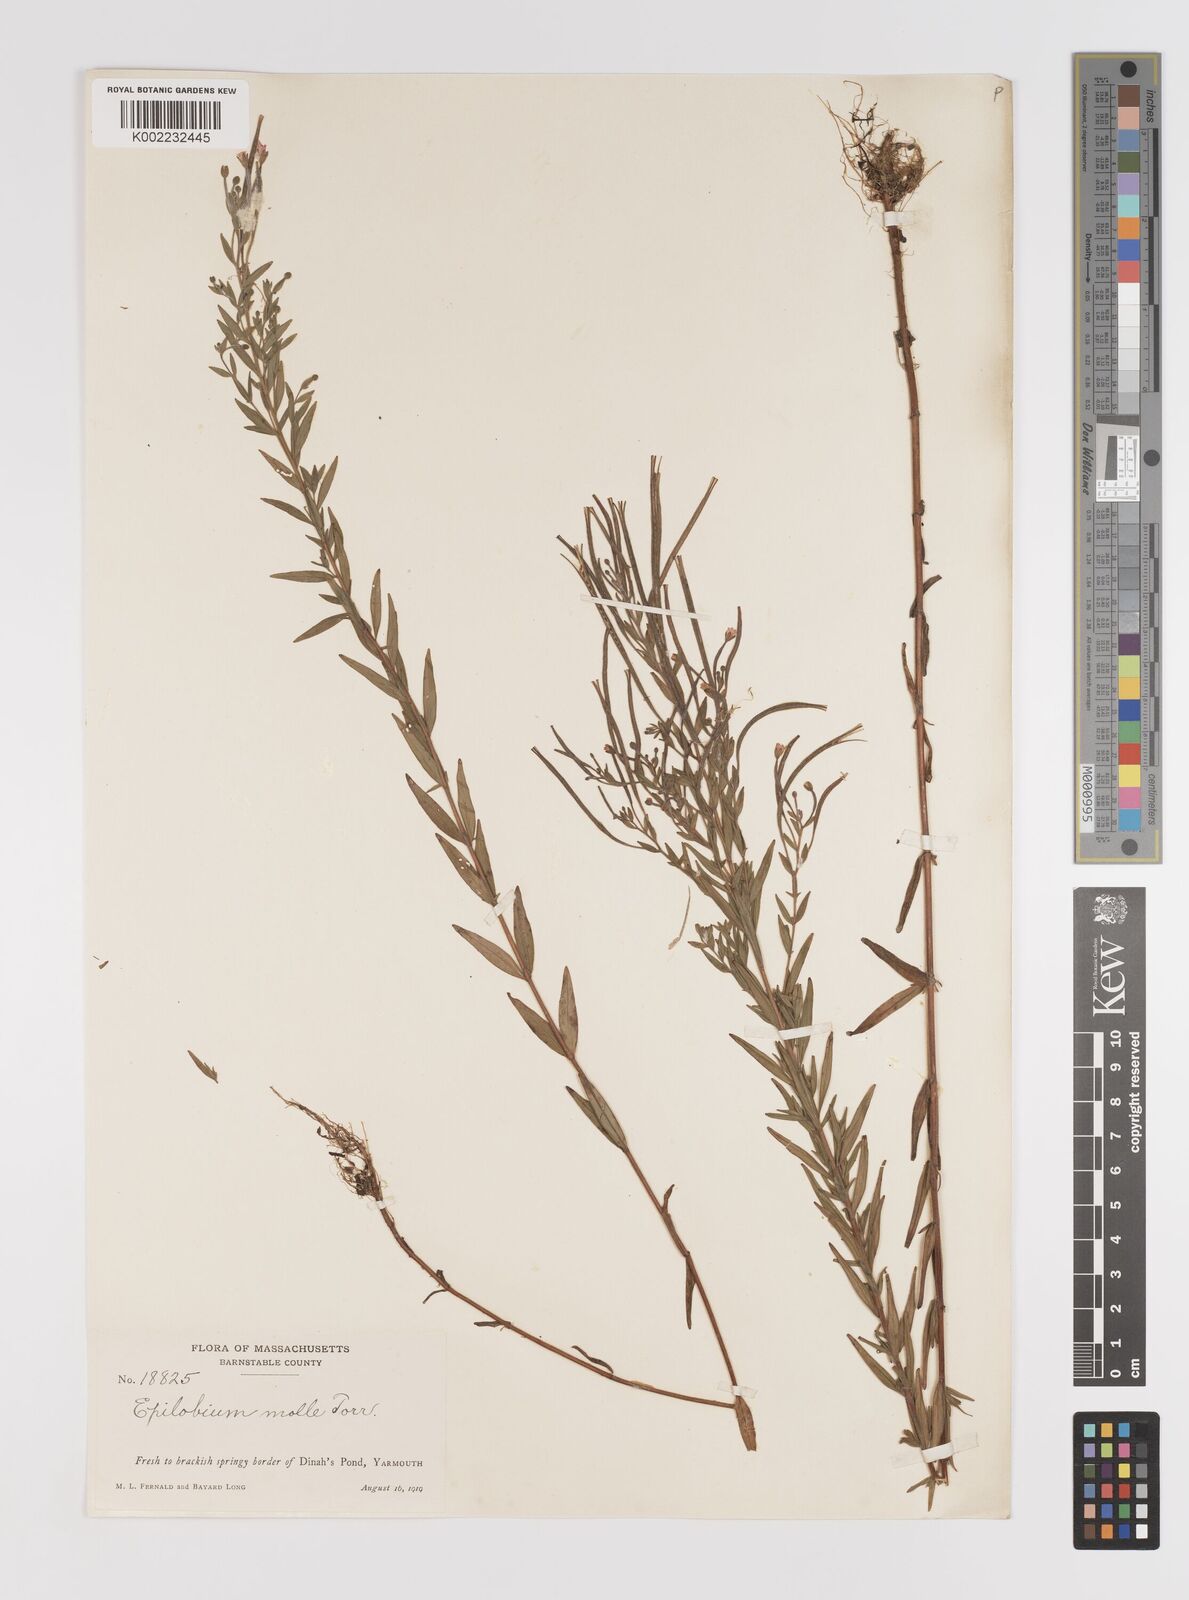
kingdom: Plantae
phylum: Tracheophyta
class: Magnoliopsida
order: Myrtales
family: Onagraceae
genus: Epilobium
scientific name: Epilobium densum
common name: Downy willowherb
